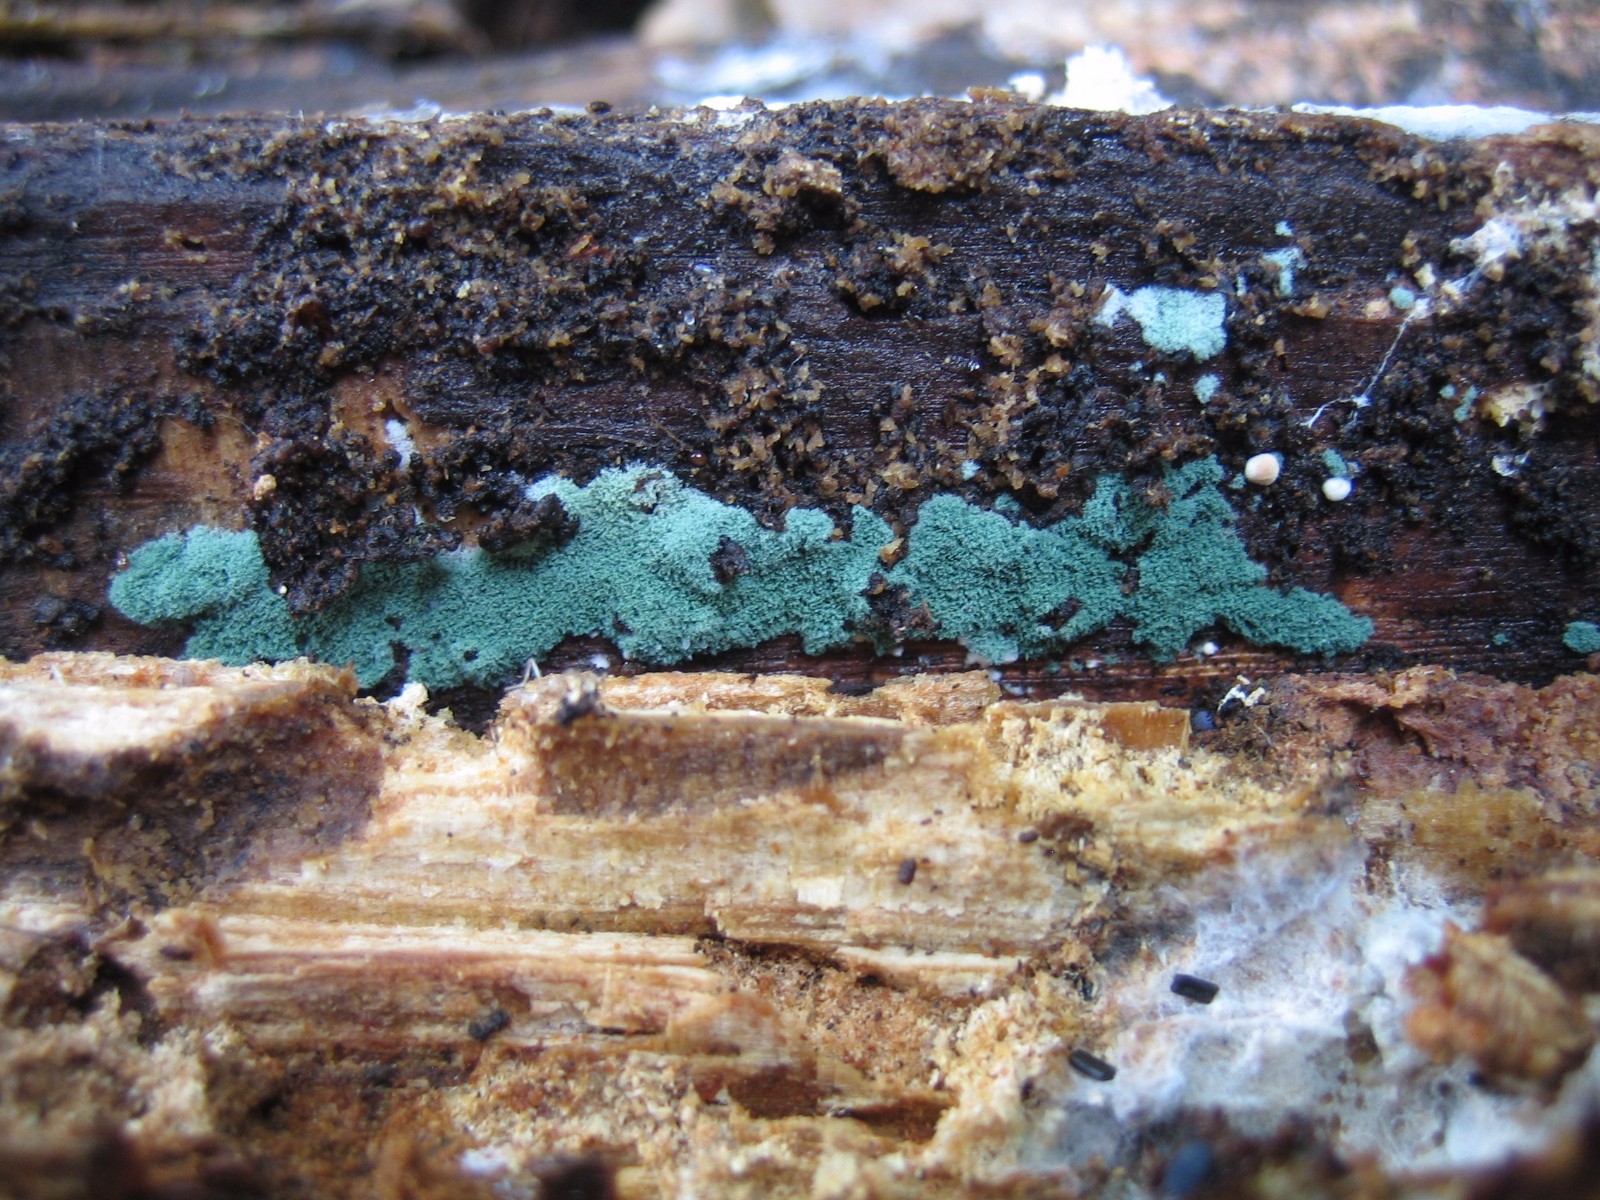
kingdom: Fungi
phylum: Ascomycota
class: Sordariomycetes
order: Hypocreales
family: Hypocreaceae
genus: Trichoderma
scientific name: Trichoderma
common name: kødkerne
